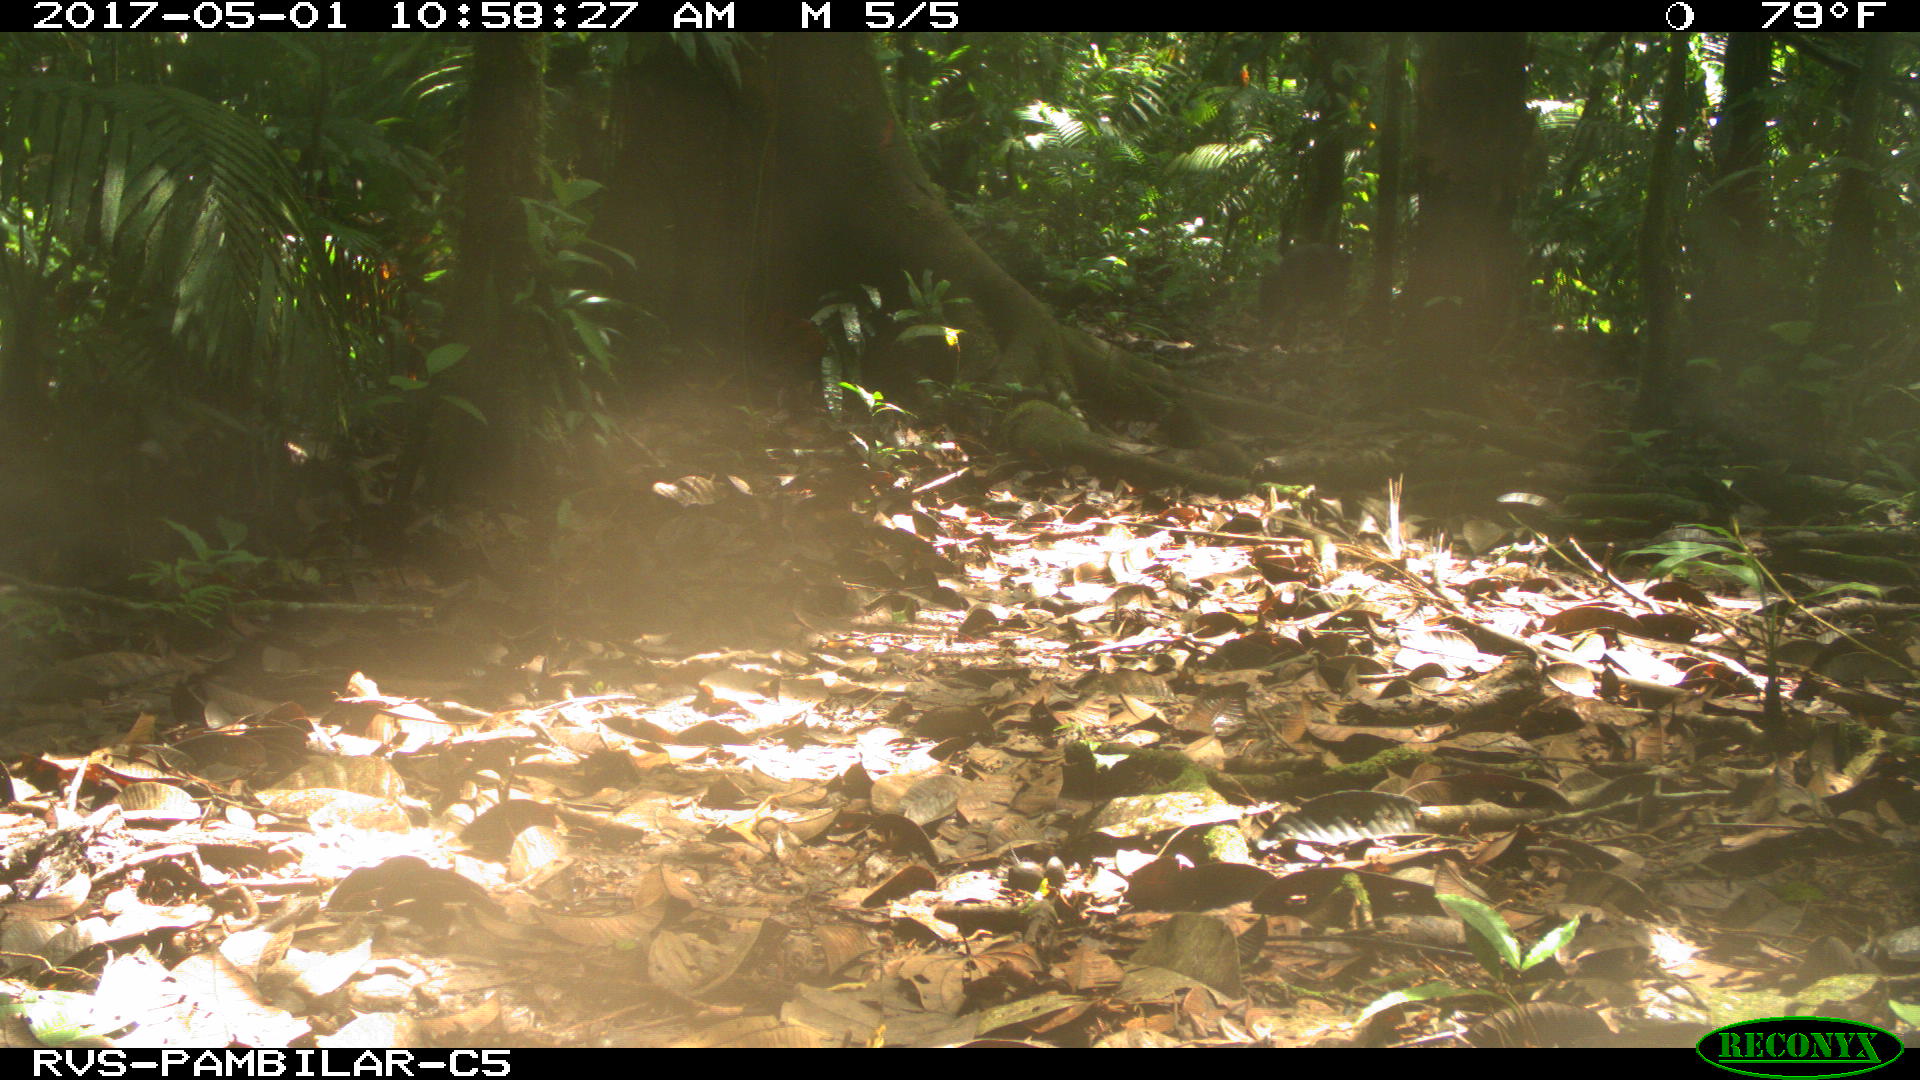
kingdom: Animalia
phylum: Chordata
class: Mammalia
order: Artiodactyla
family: Tayassuidae
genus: Tayassu
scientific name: Tayassu pecari
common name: White-lipped peccary
